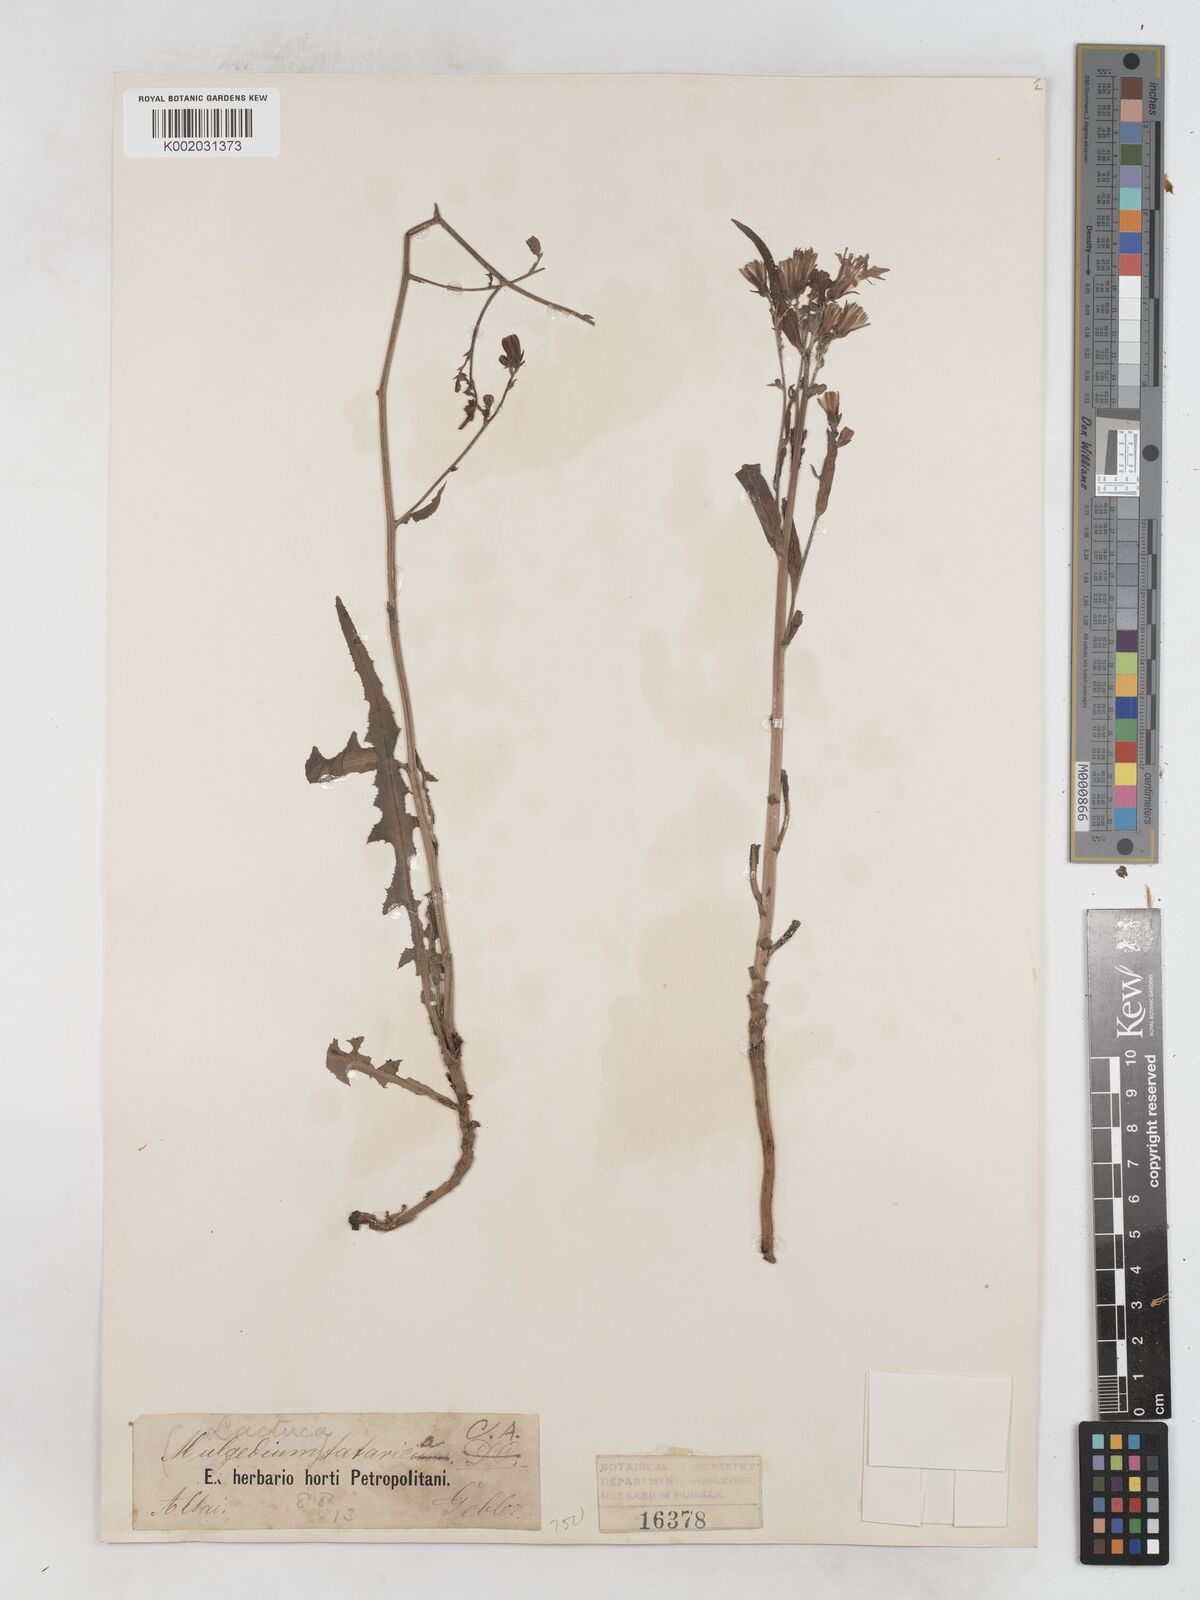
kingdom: Plantae
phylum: Tracheophyta
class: Magnoliopsida
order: Asterales
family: Asteraceae
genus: Lactuca
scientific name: Lactuca tatarica
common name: Blue lettuce
